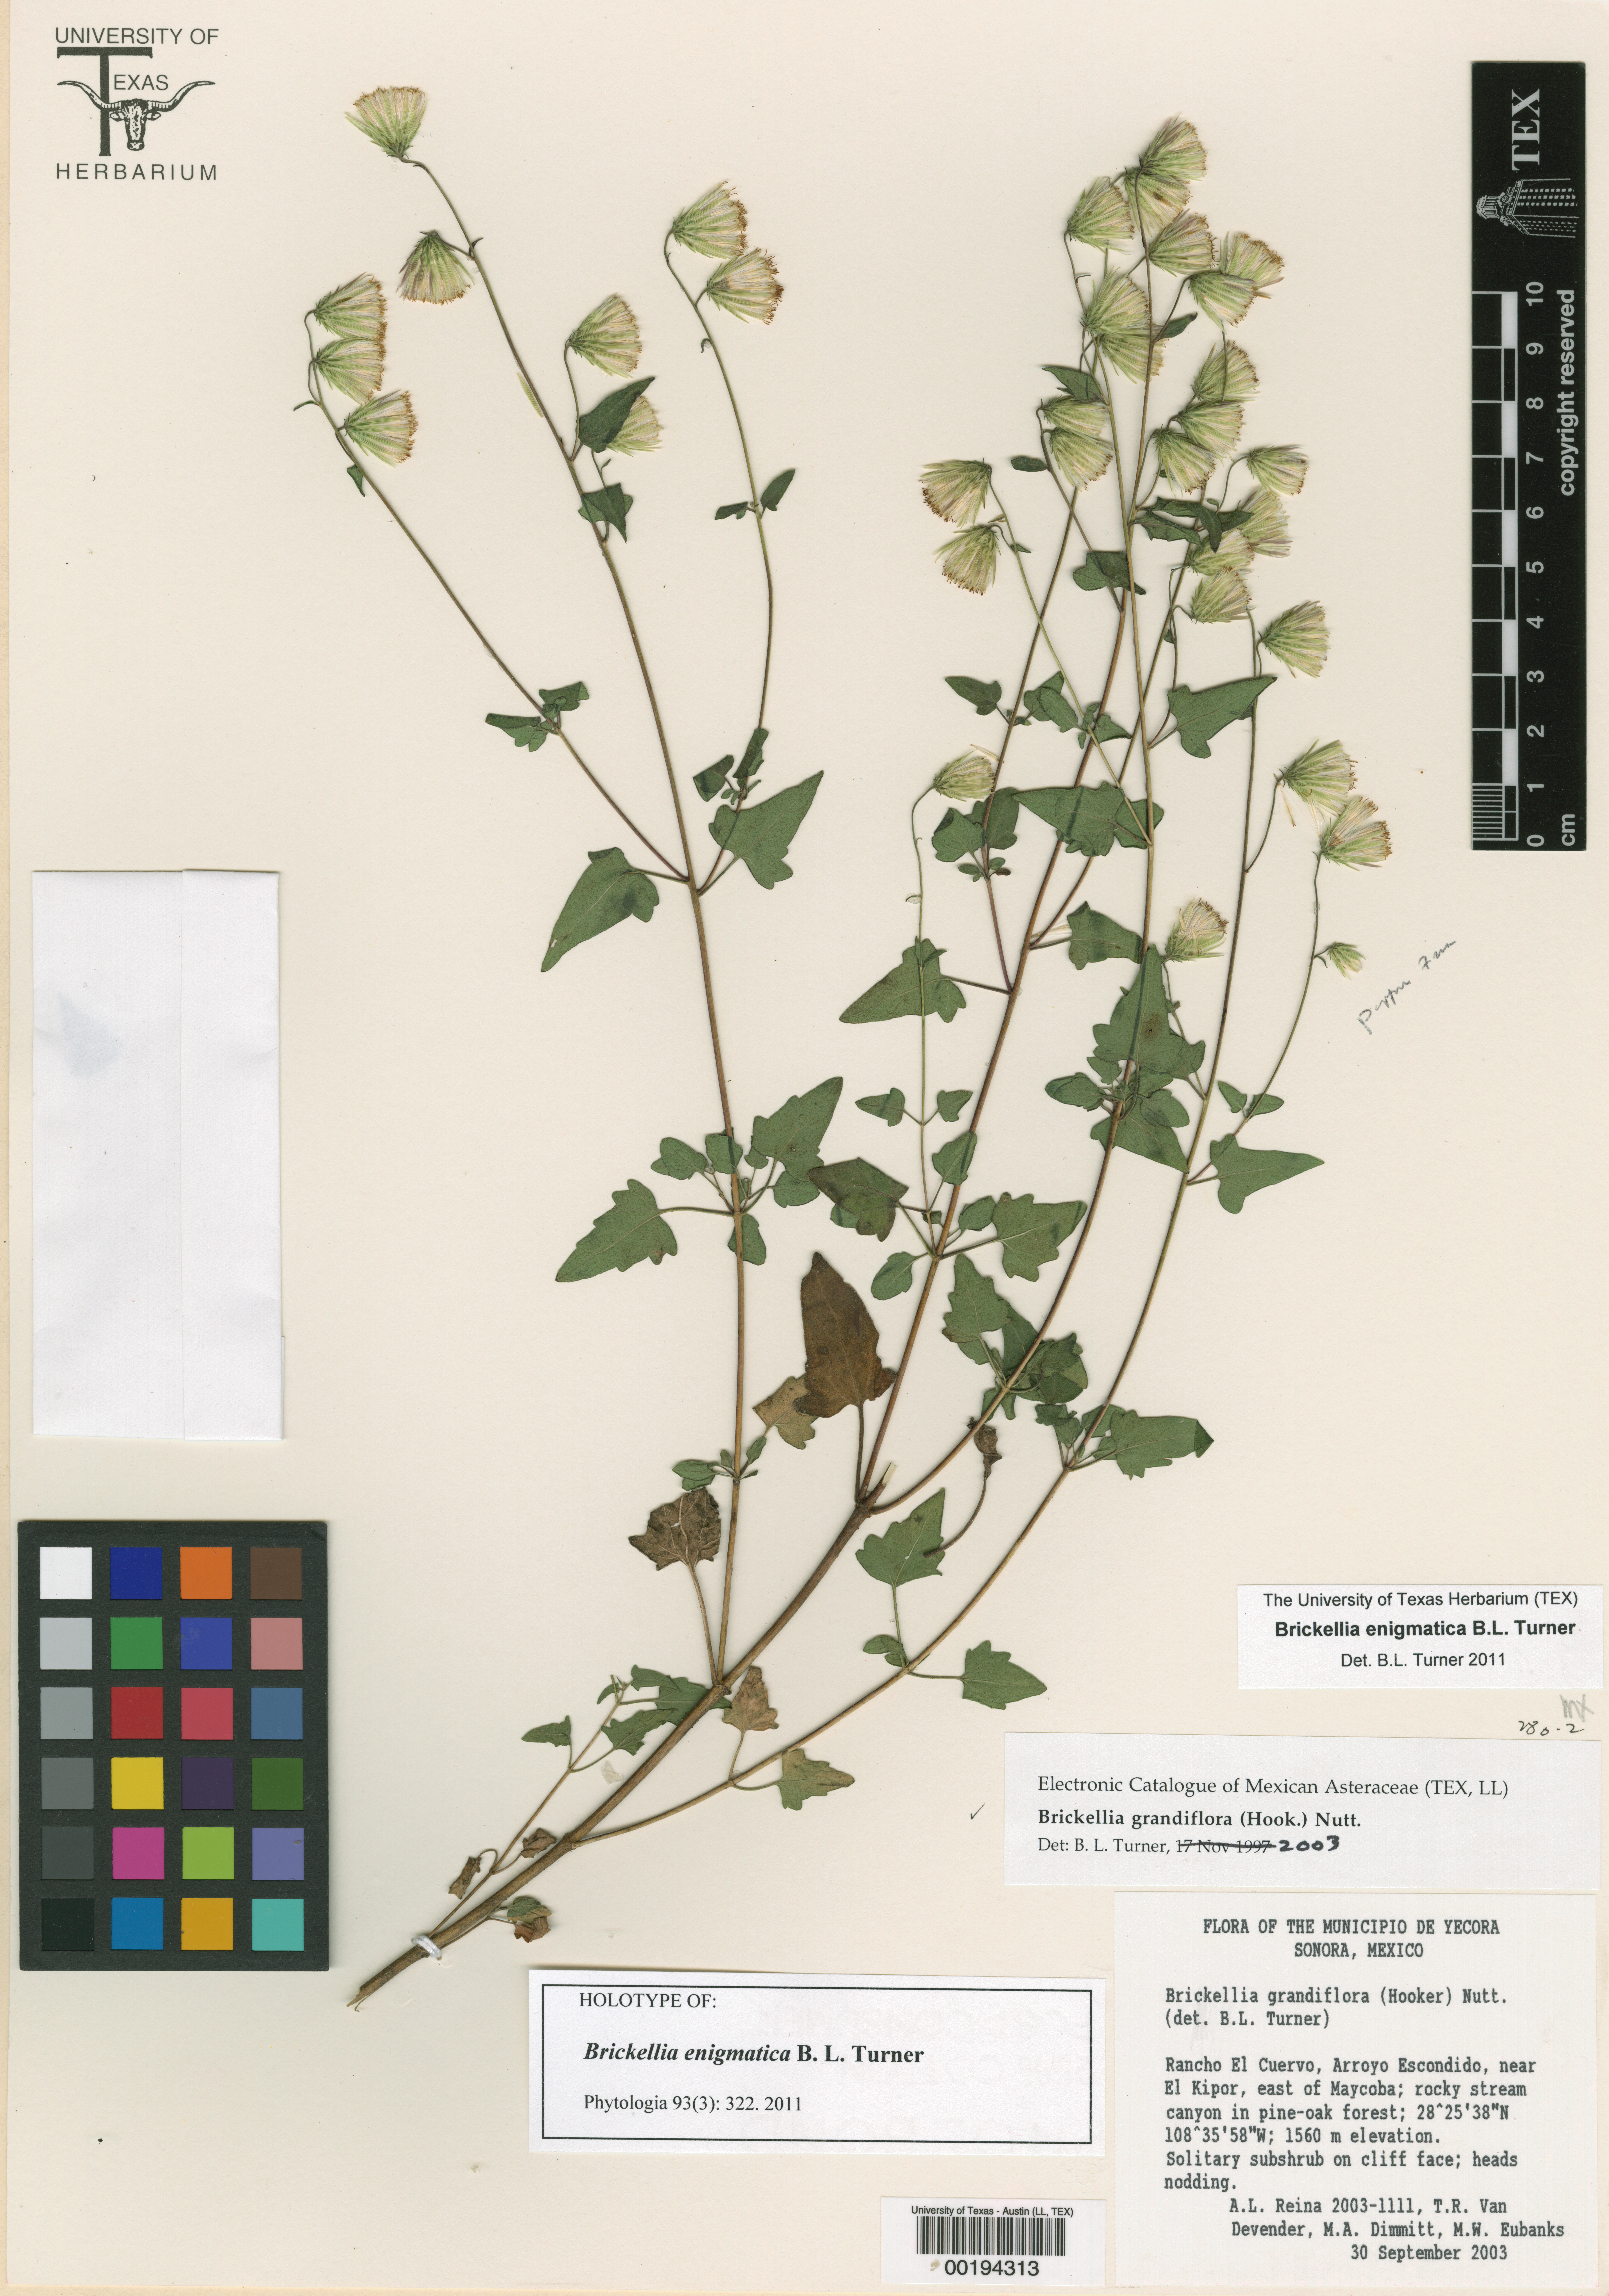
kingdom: Plantae
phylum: Tracheophyta
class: Magnoliopsida
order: Asterales
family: Asteraceae
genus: Brickellia
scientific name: Brickellia grandiflora
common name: Large-flowered brickellia
